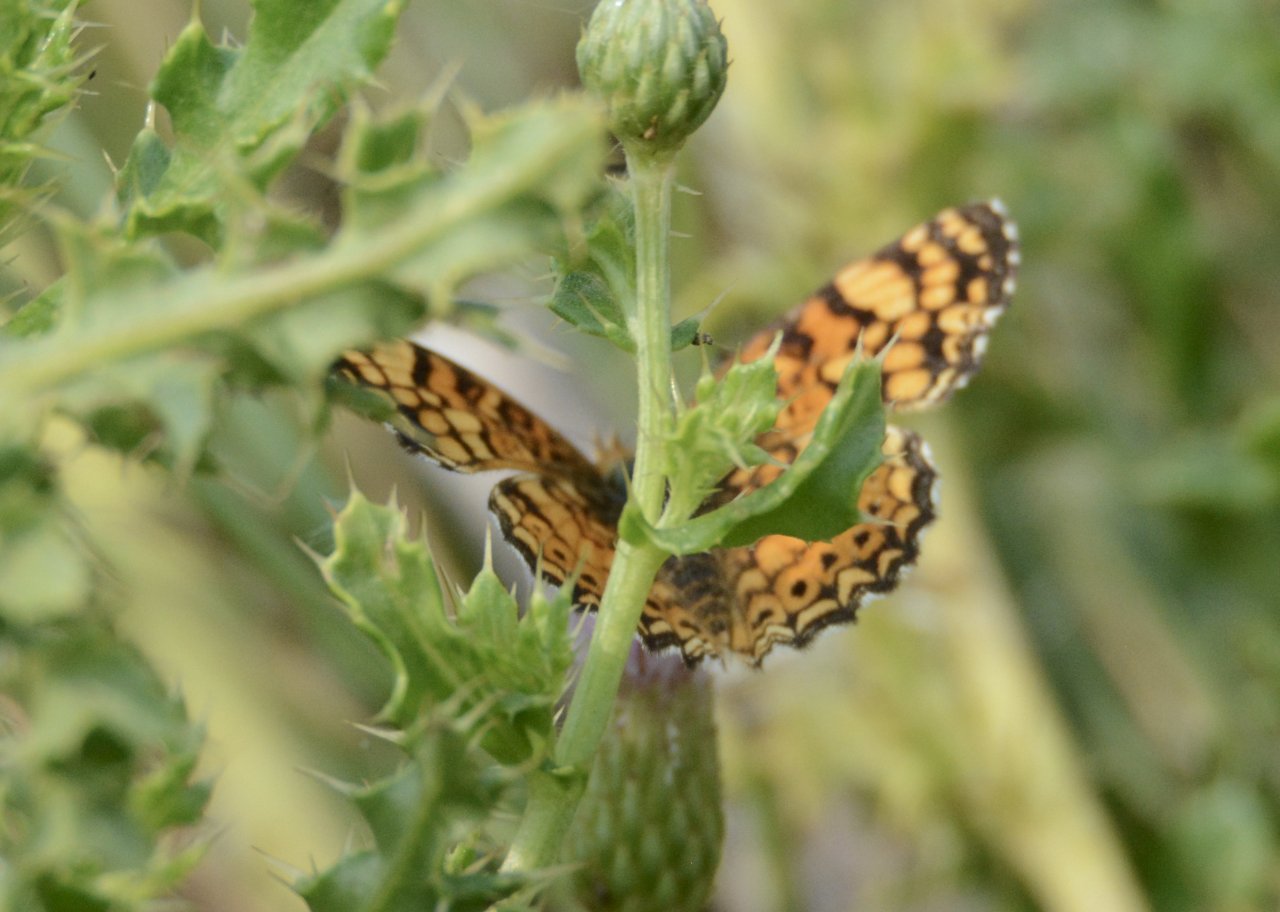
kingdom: Animalia
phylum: Arthropoda
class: Insecta
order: Lepidoptera
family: Nymphalidae
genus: Eresia
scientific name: Eresia aveyrona
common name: Mylitta Crescent
